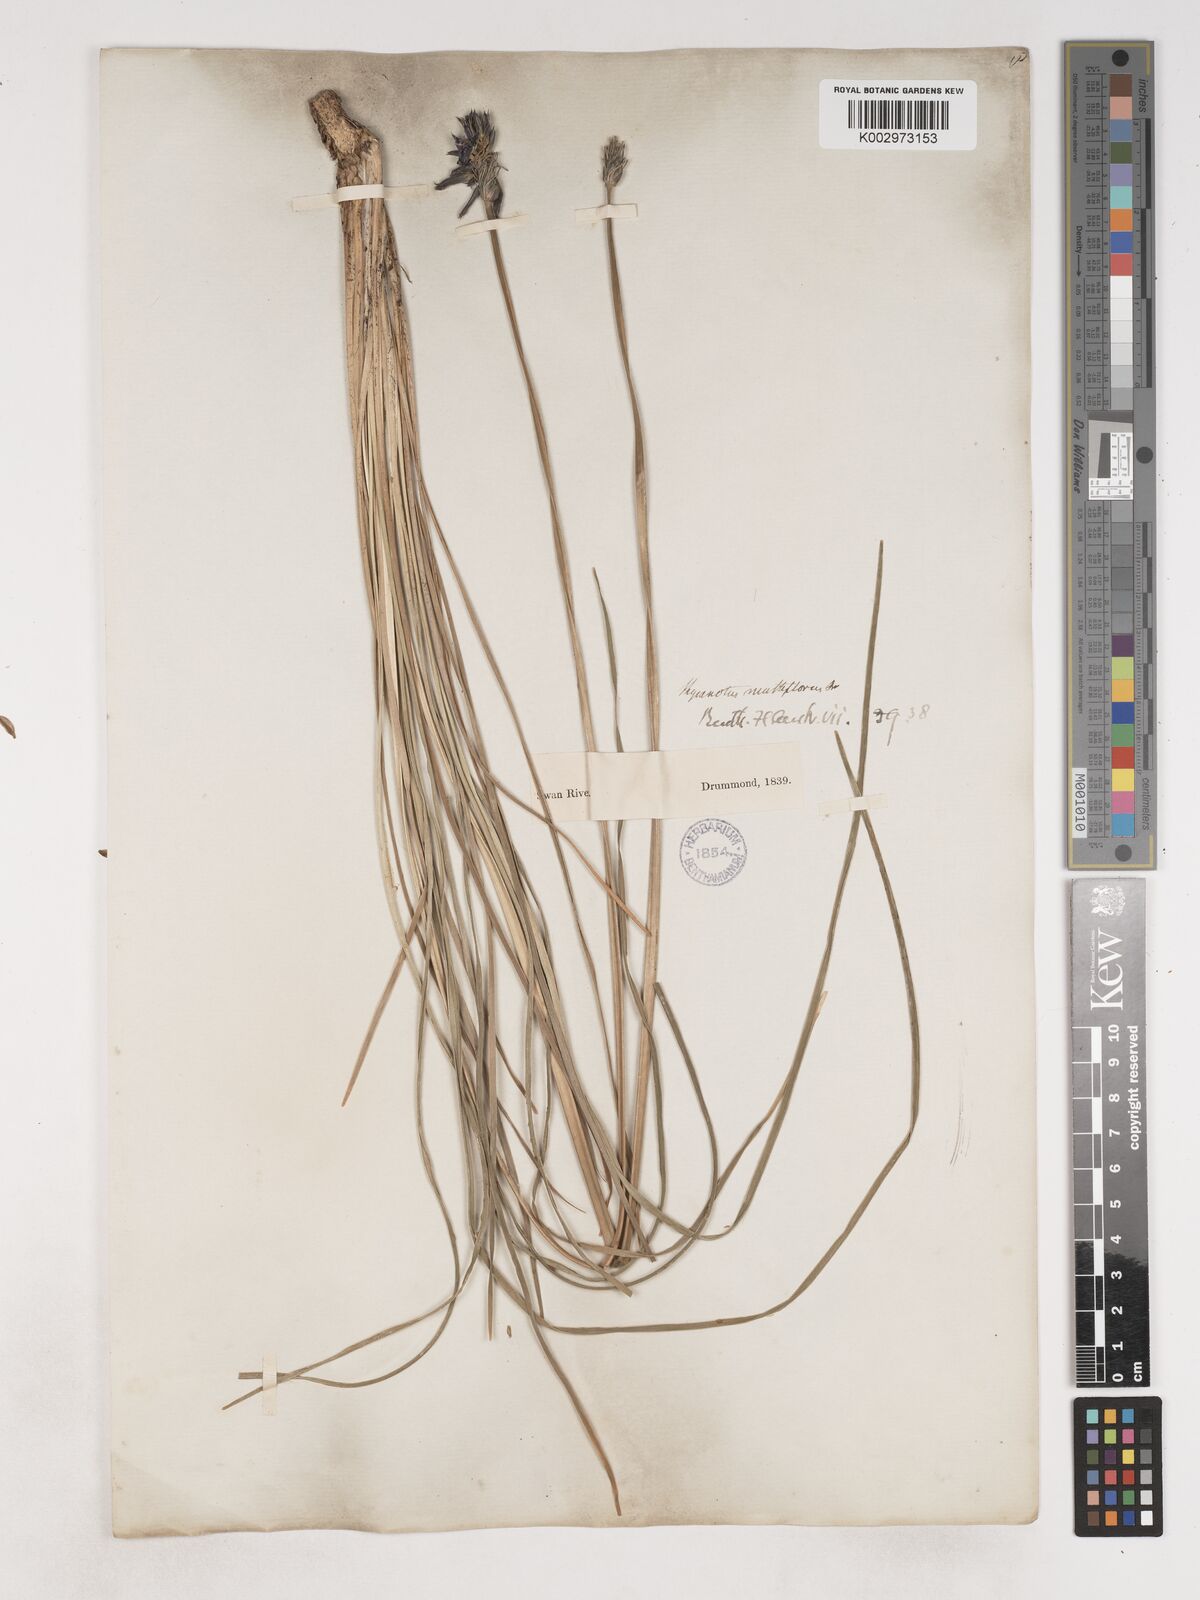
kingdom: Plantae
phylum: Tracheophyta
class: Liliopsida
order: Asparagales
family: Asparagaceae
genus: Thysanotus
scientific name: Thysanotus multiflorus
